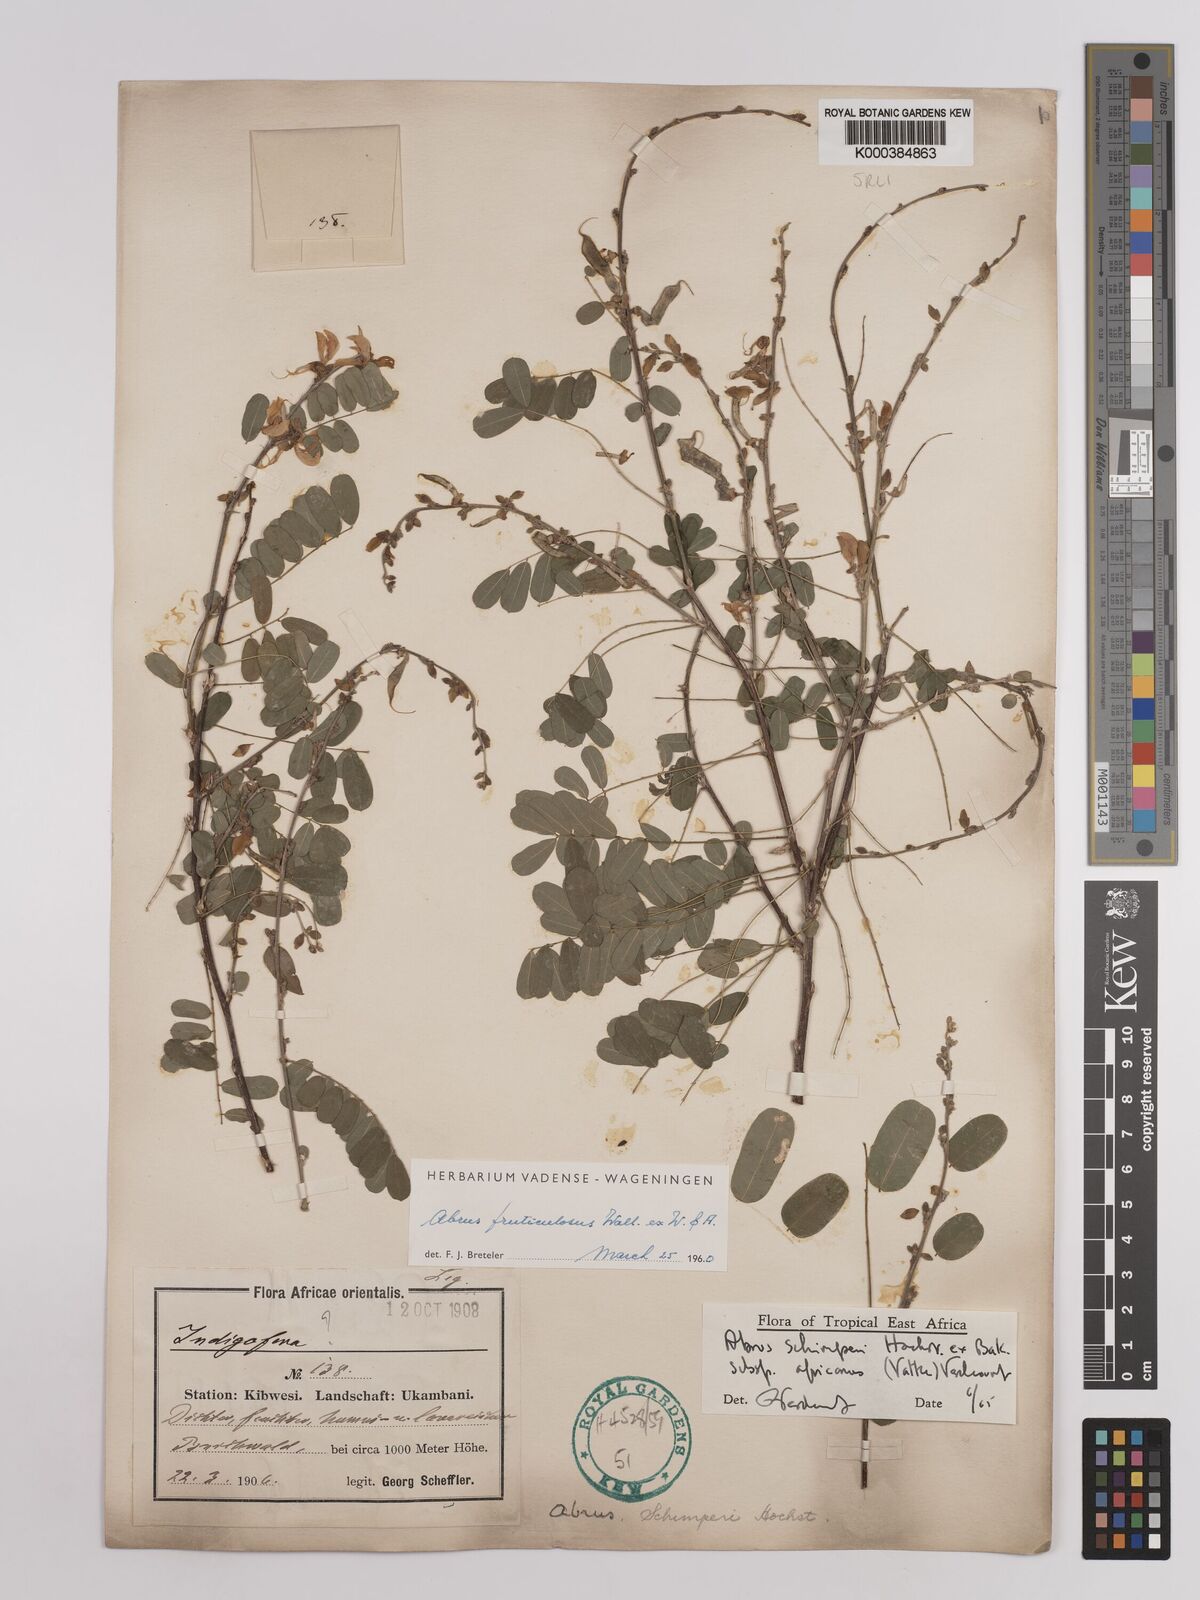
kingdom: Plantae
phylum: Tracheophyta
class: Magnoliopsida
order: Fabales
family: Fabaceae
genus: Abrus
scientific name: Abrus fruticulosus
